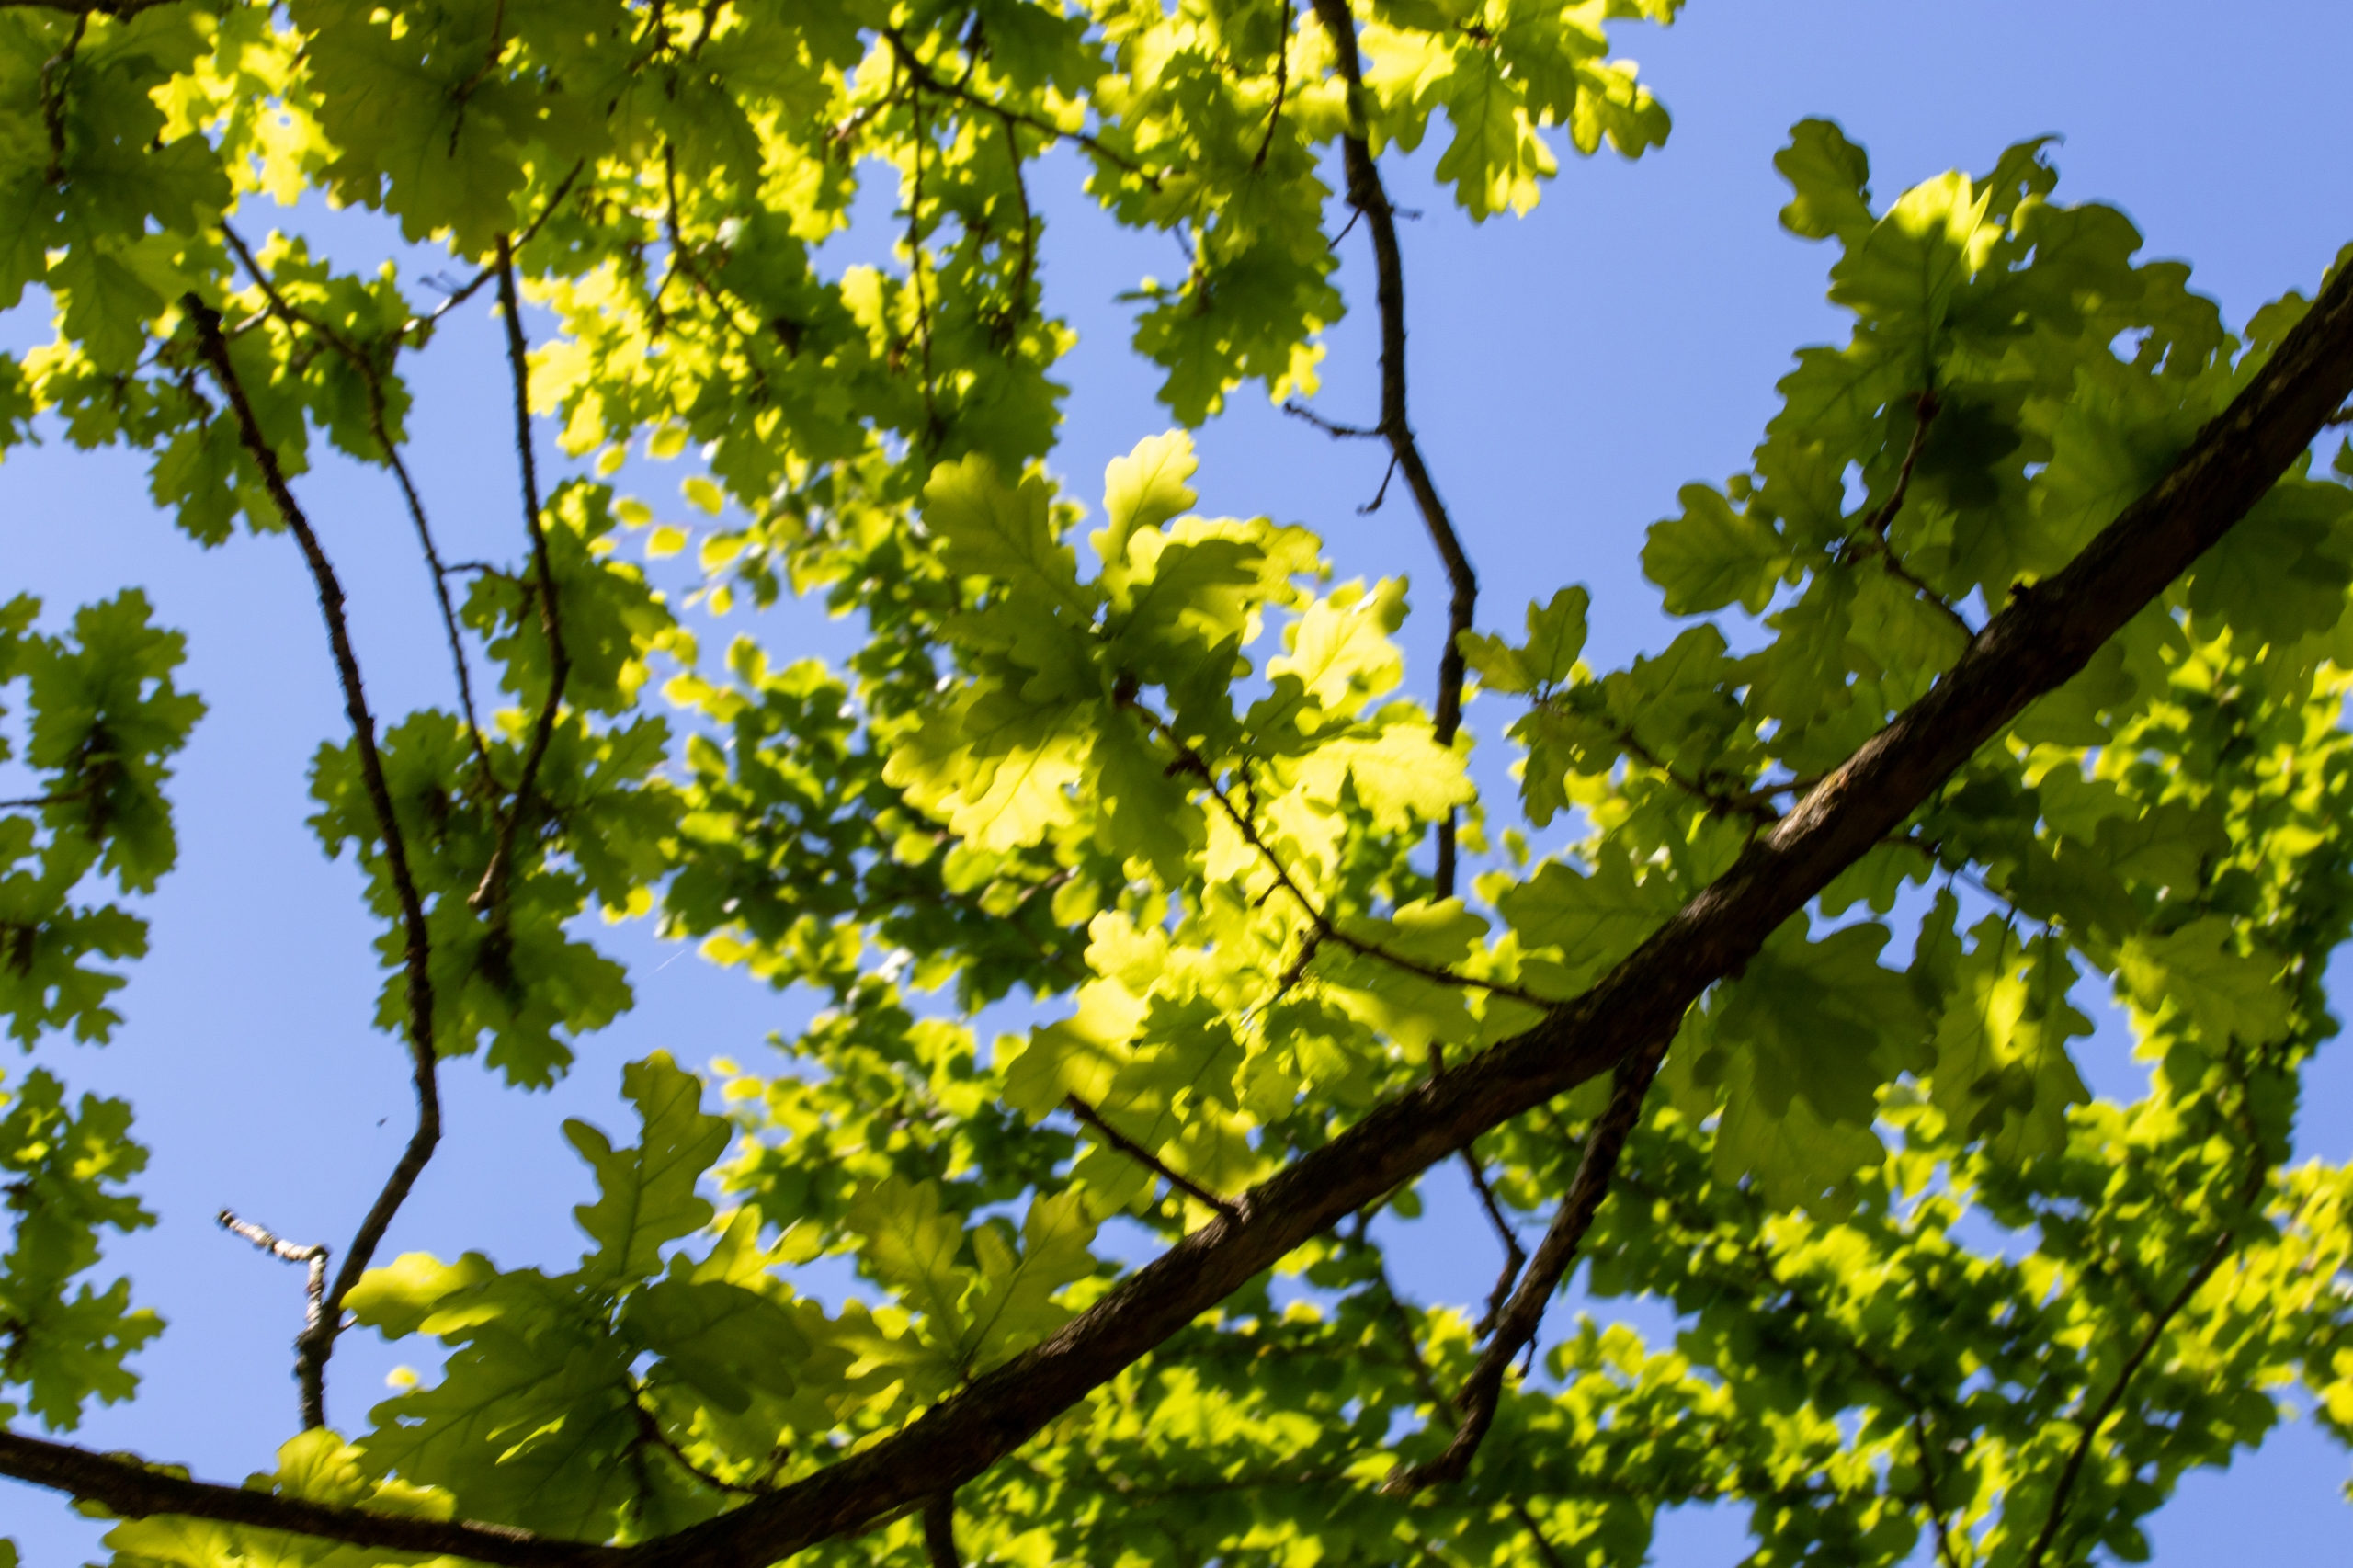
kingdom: Plantae
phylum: Tracheophyta
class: Magnoliopsida
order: Fagales
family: Fagaceae
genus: Quercus
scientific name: Quercus robur
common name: Stilk-eg/almindelig eg
